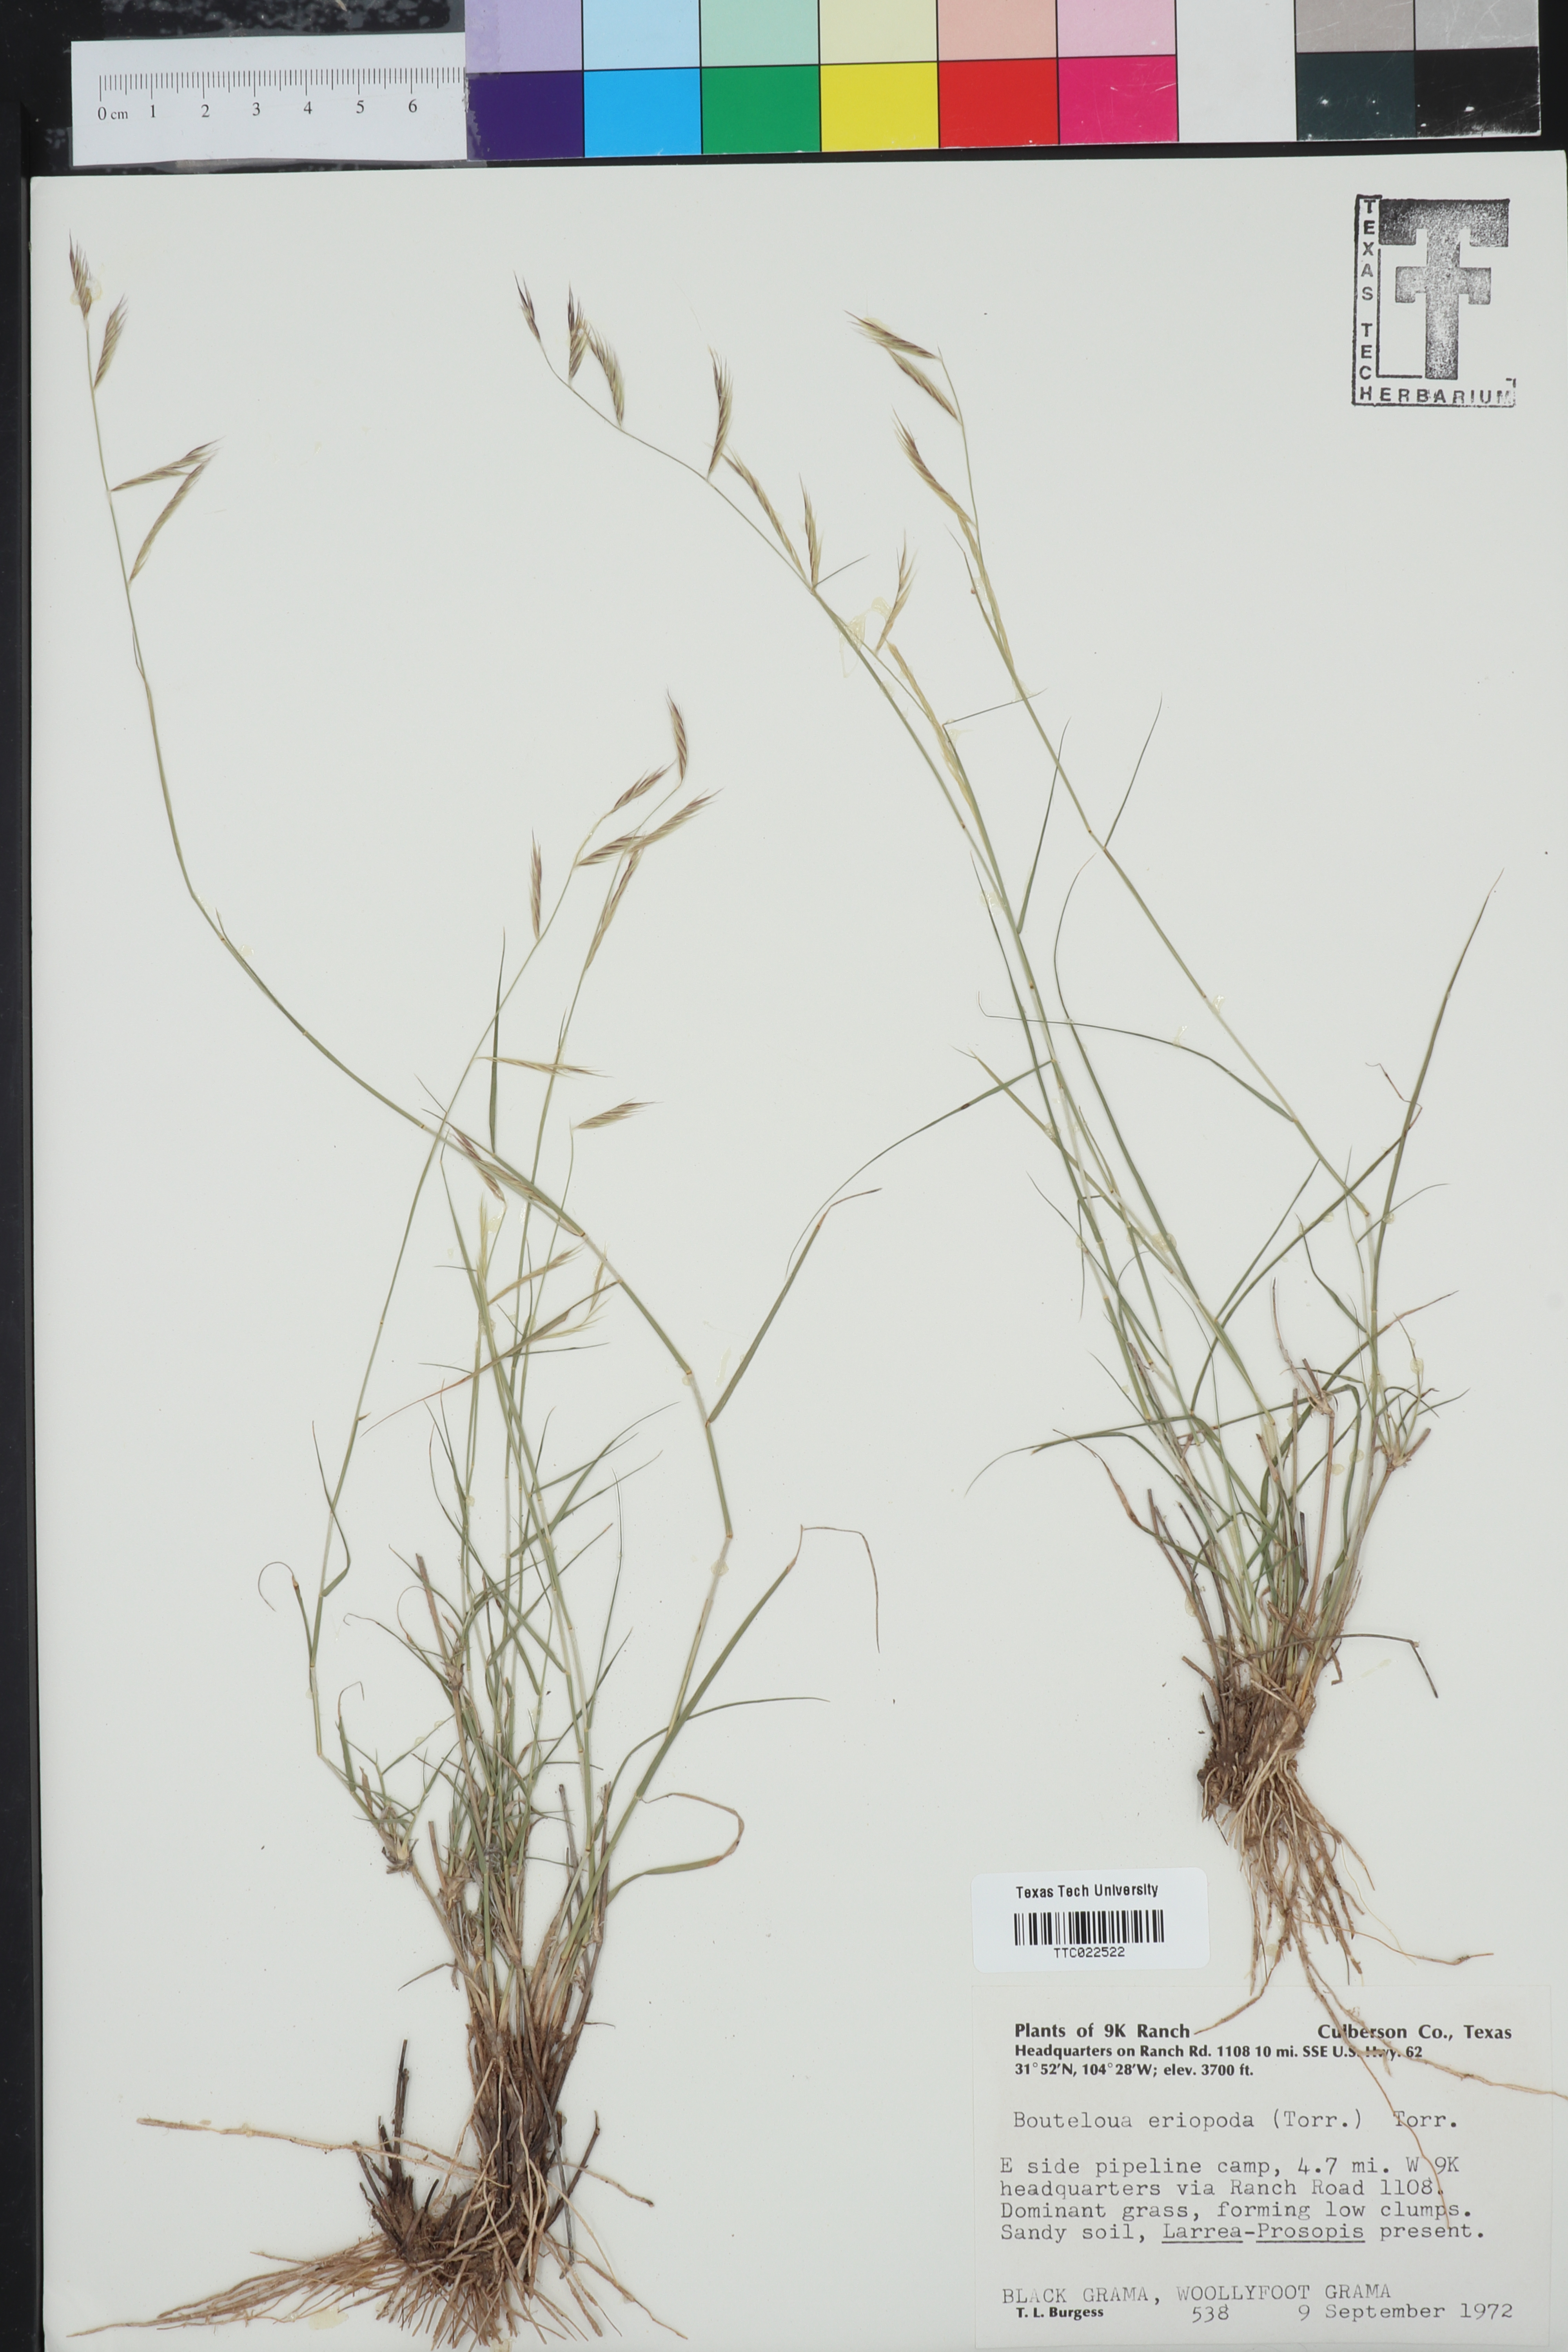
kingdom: Plantae
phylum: Tracheophyta
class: Liliopsida
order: Poales
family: Poaceae
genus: Bouteloua
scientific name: Bouteloua eriopoda
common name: Woolly foot grama
